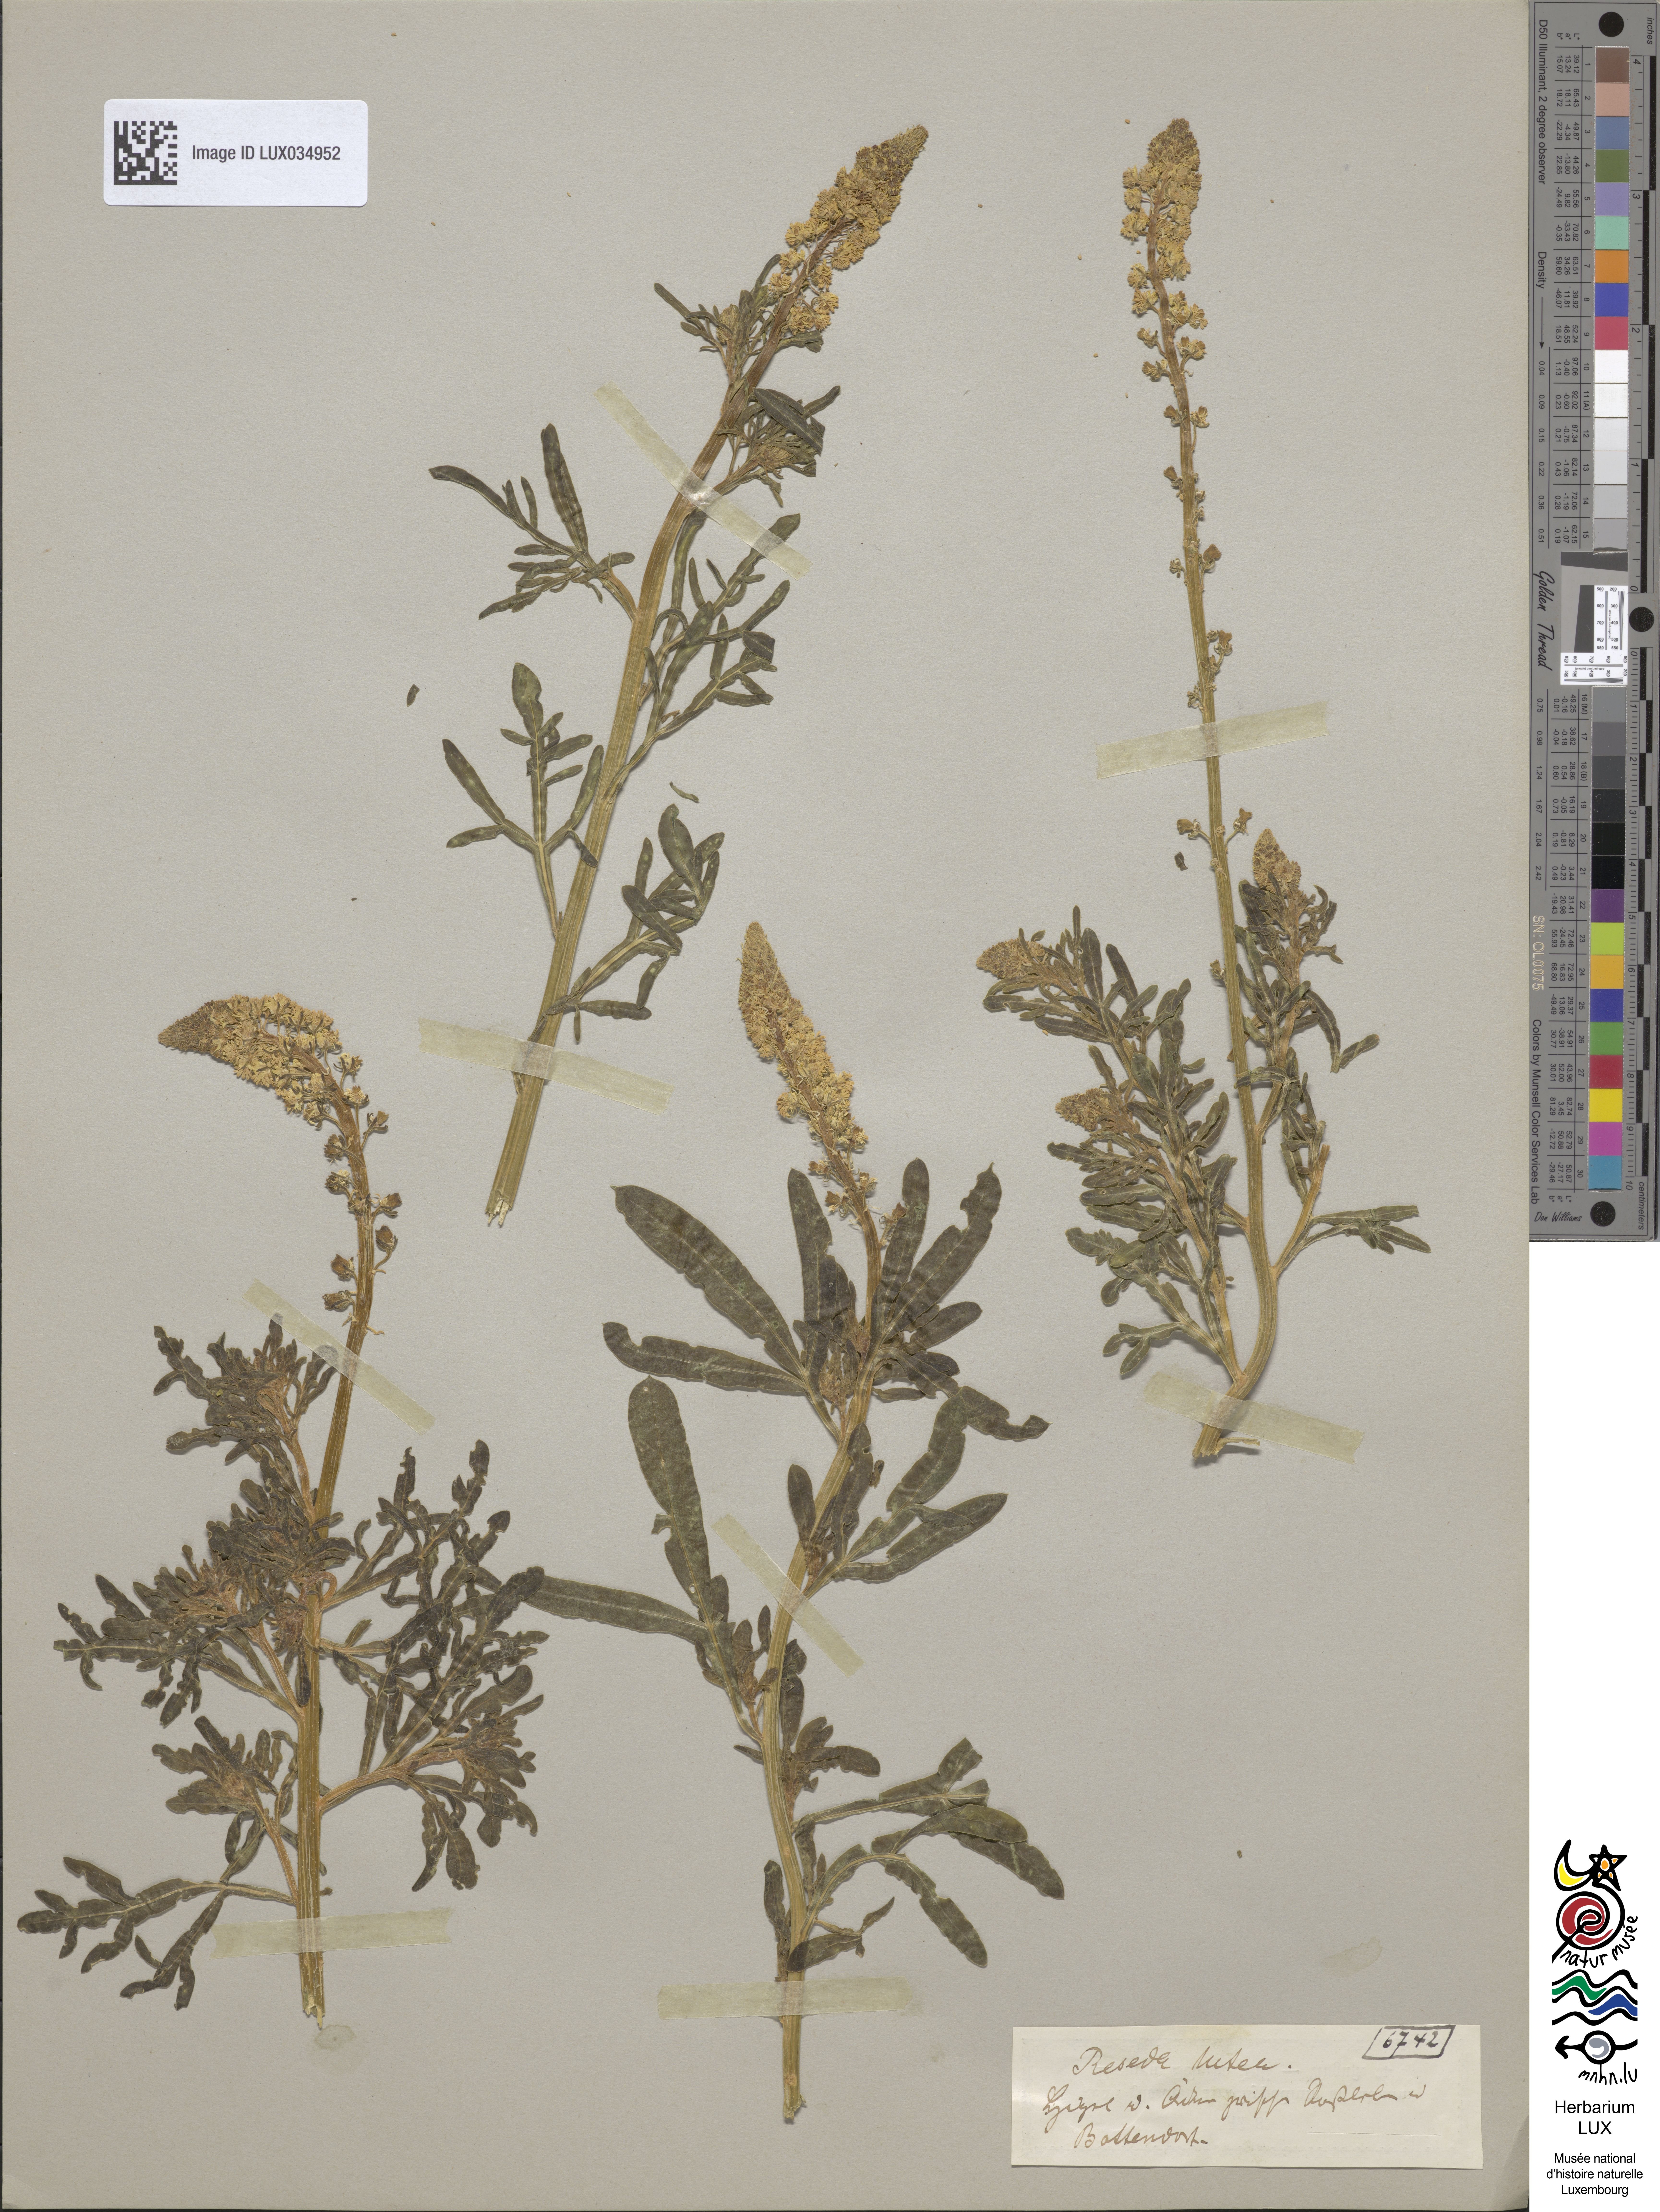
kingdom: Plantae
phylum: Tracheophyta
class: Magnoliopsida
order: Brassicales
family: Resedaceae
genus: Reseda
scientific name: Reseda lutea
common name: Wild mignonette
